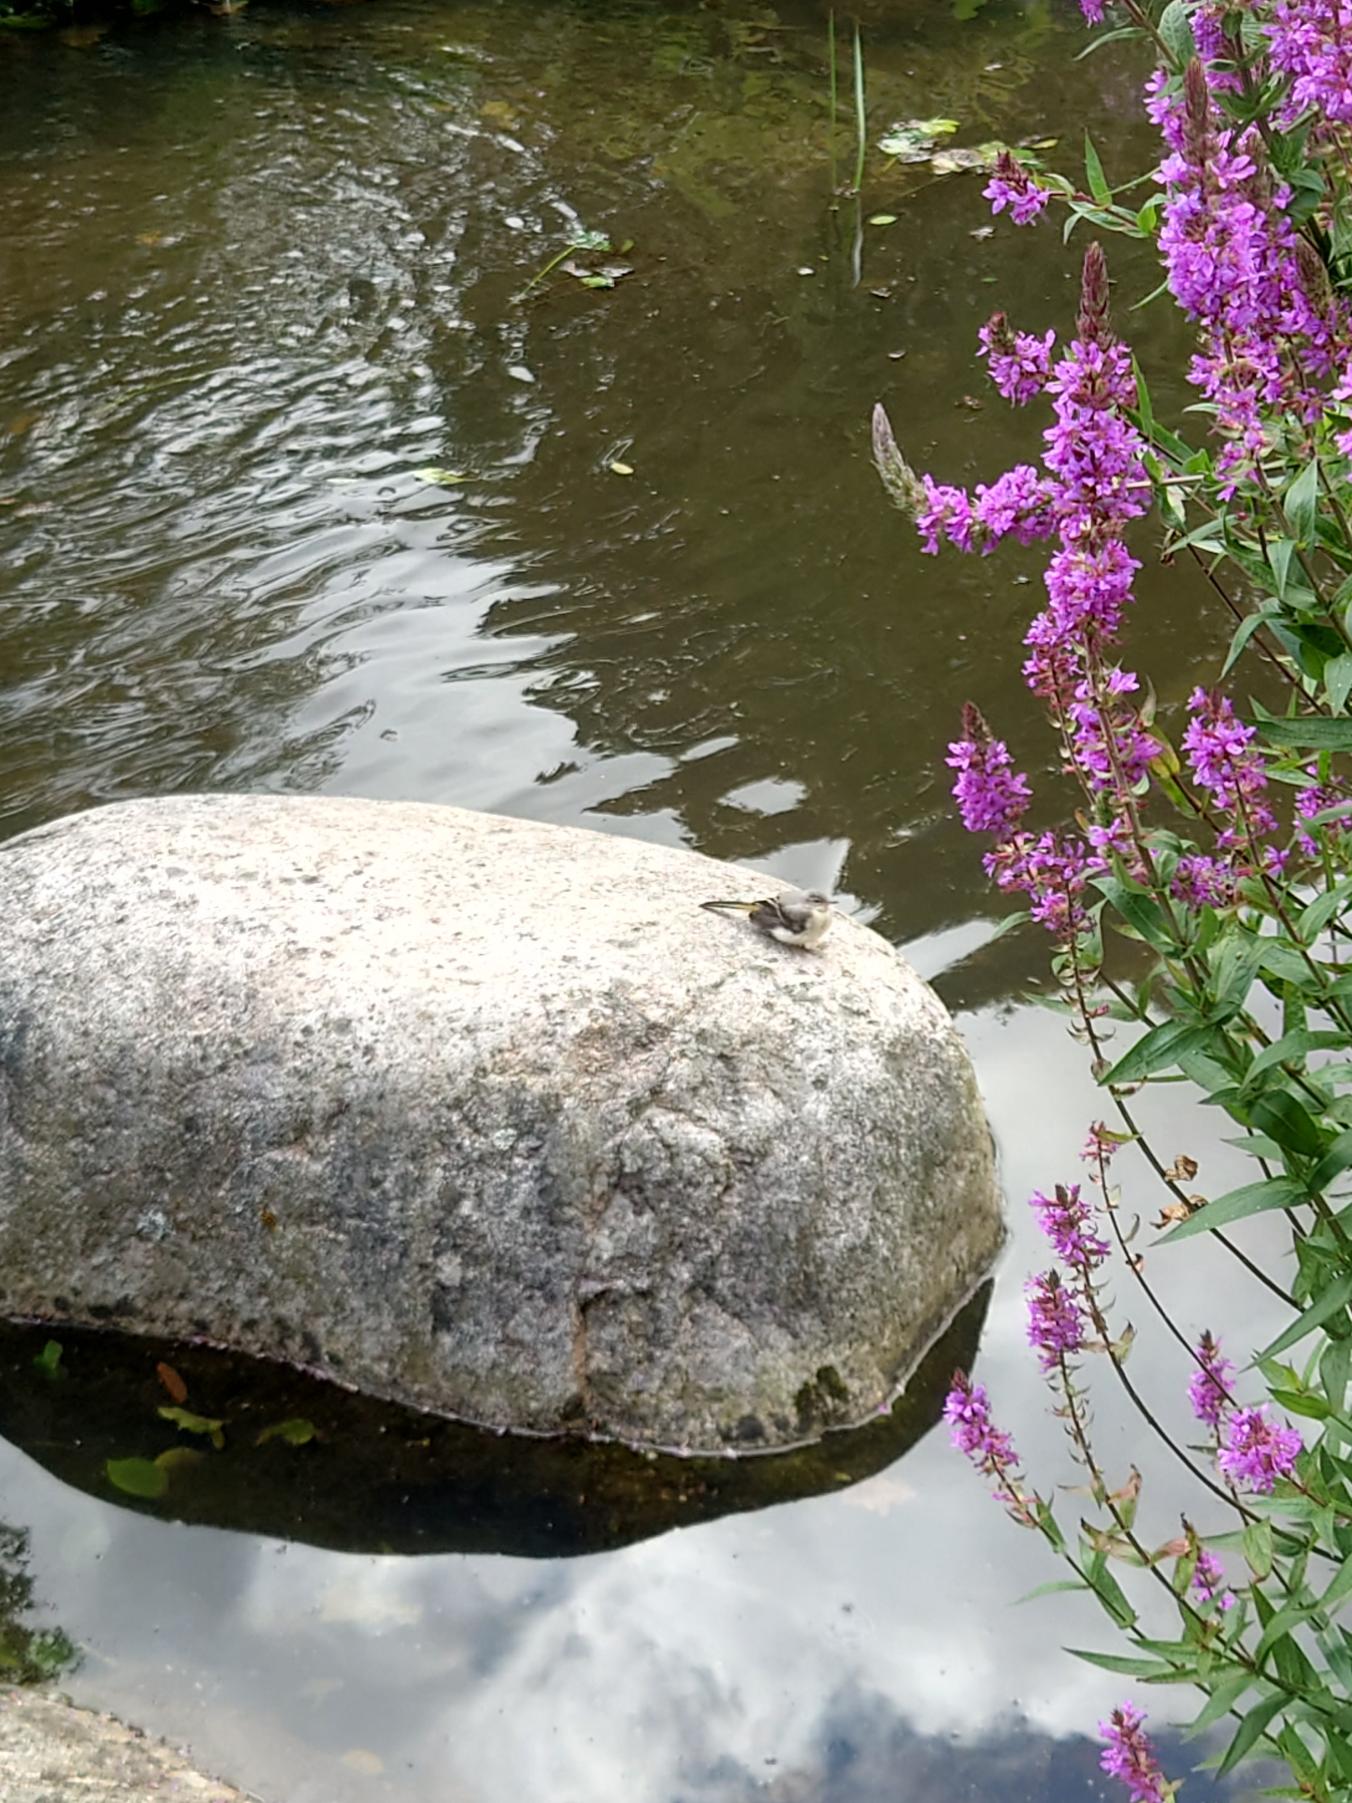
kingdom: Animalia
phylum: Chordata
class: Aves
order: Passeriformes
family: Motacillidae
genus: Motacilla
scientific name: Motacilla cinerea
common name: Bjergvipstjert
